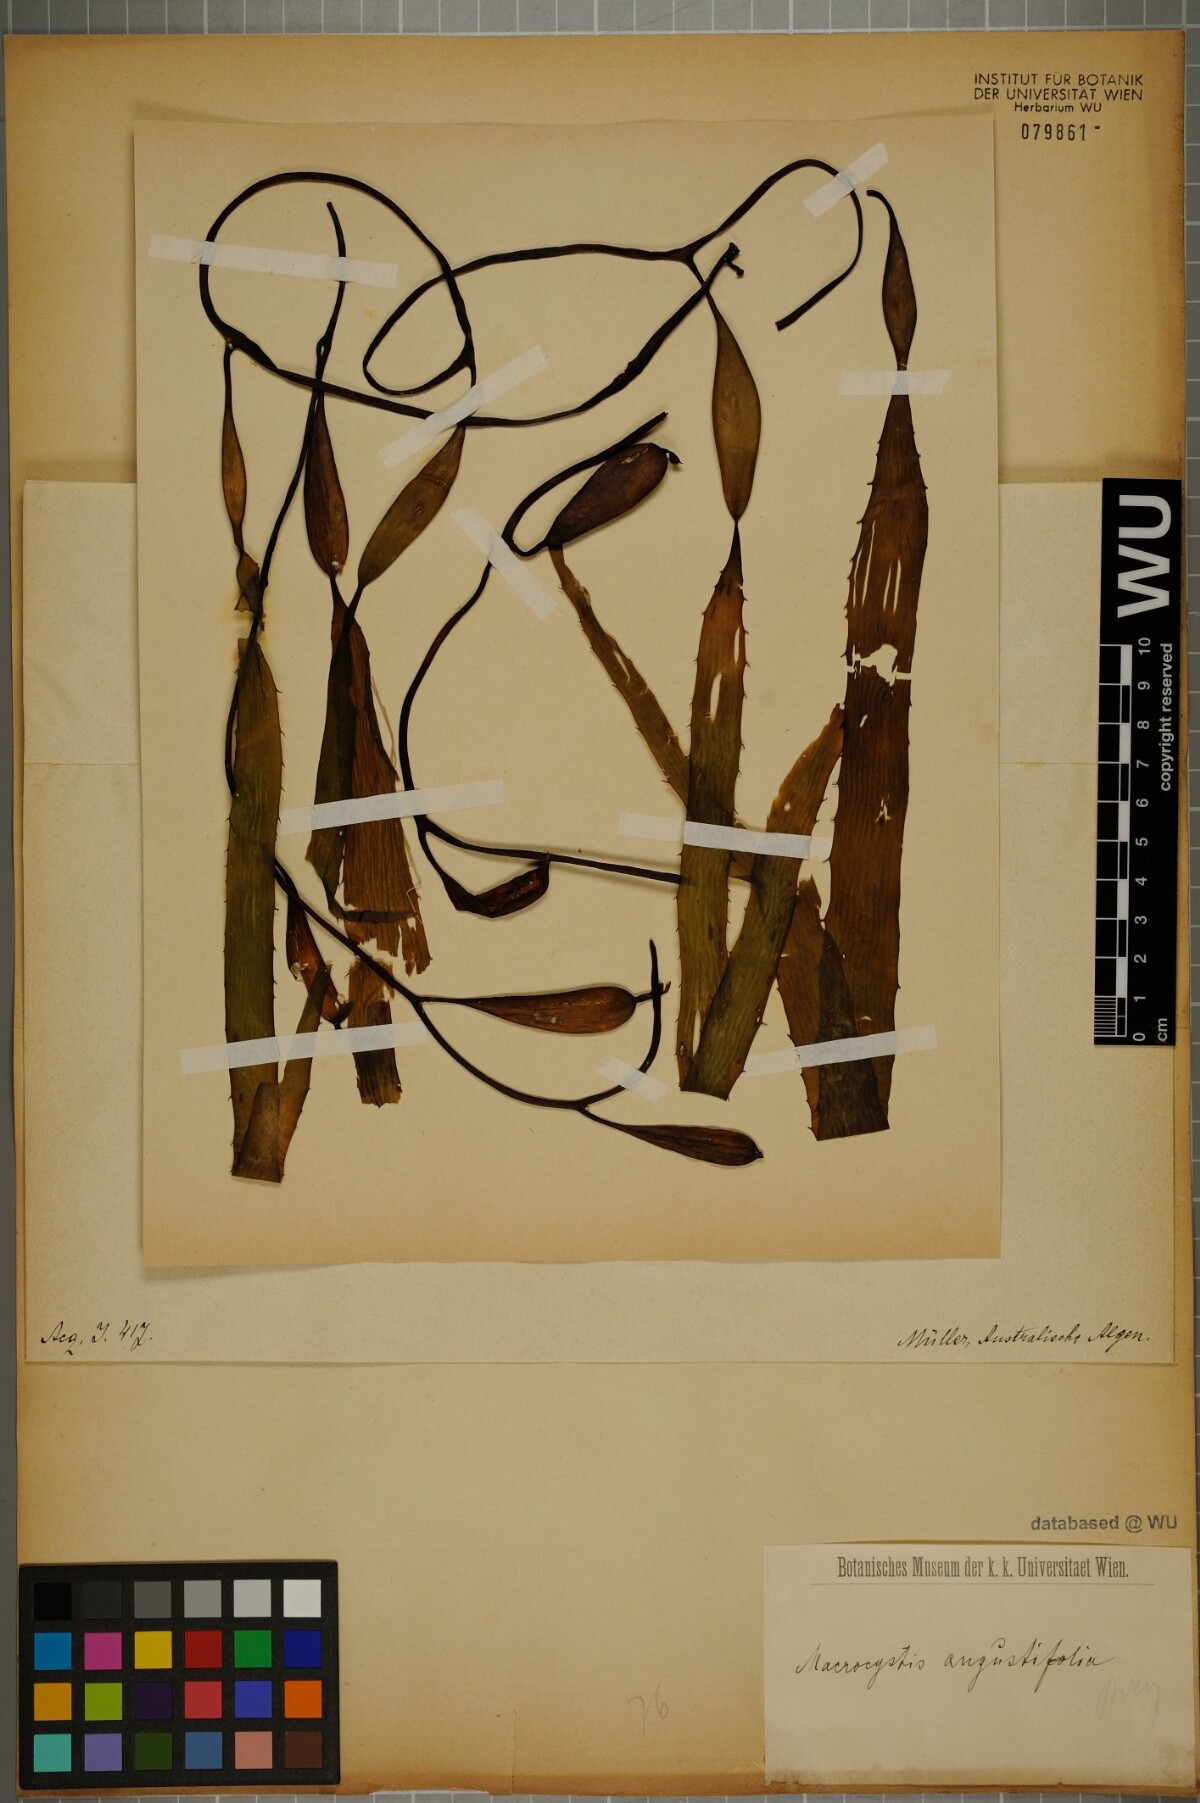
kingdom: Chromista
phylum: Ochrophyta
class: Phaeophyceae
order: Laminariales
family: Laminariaceae
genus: Macrocystis
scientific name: Macrocystis angustifolia
